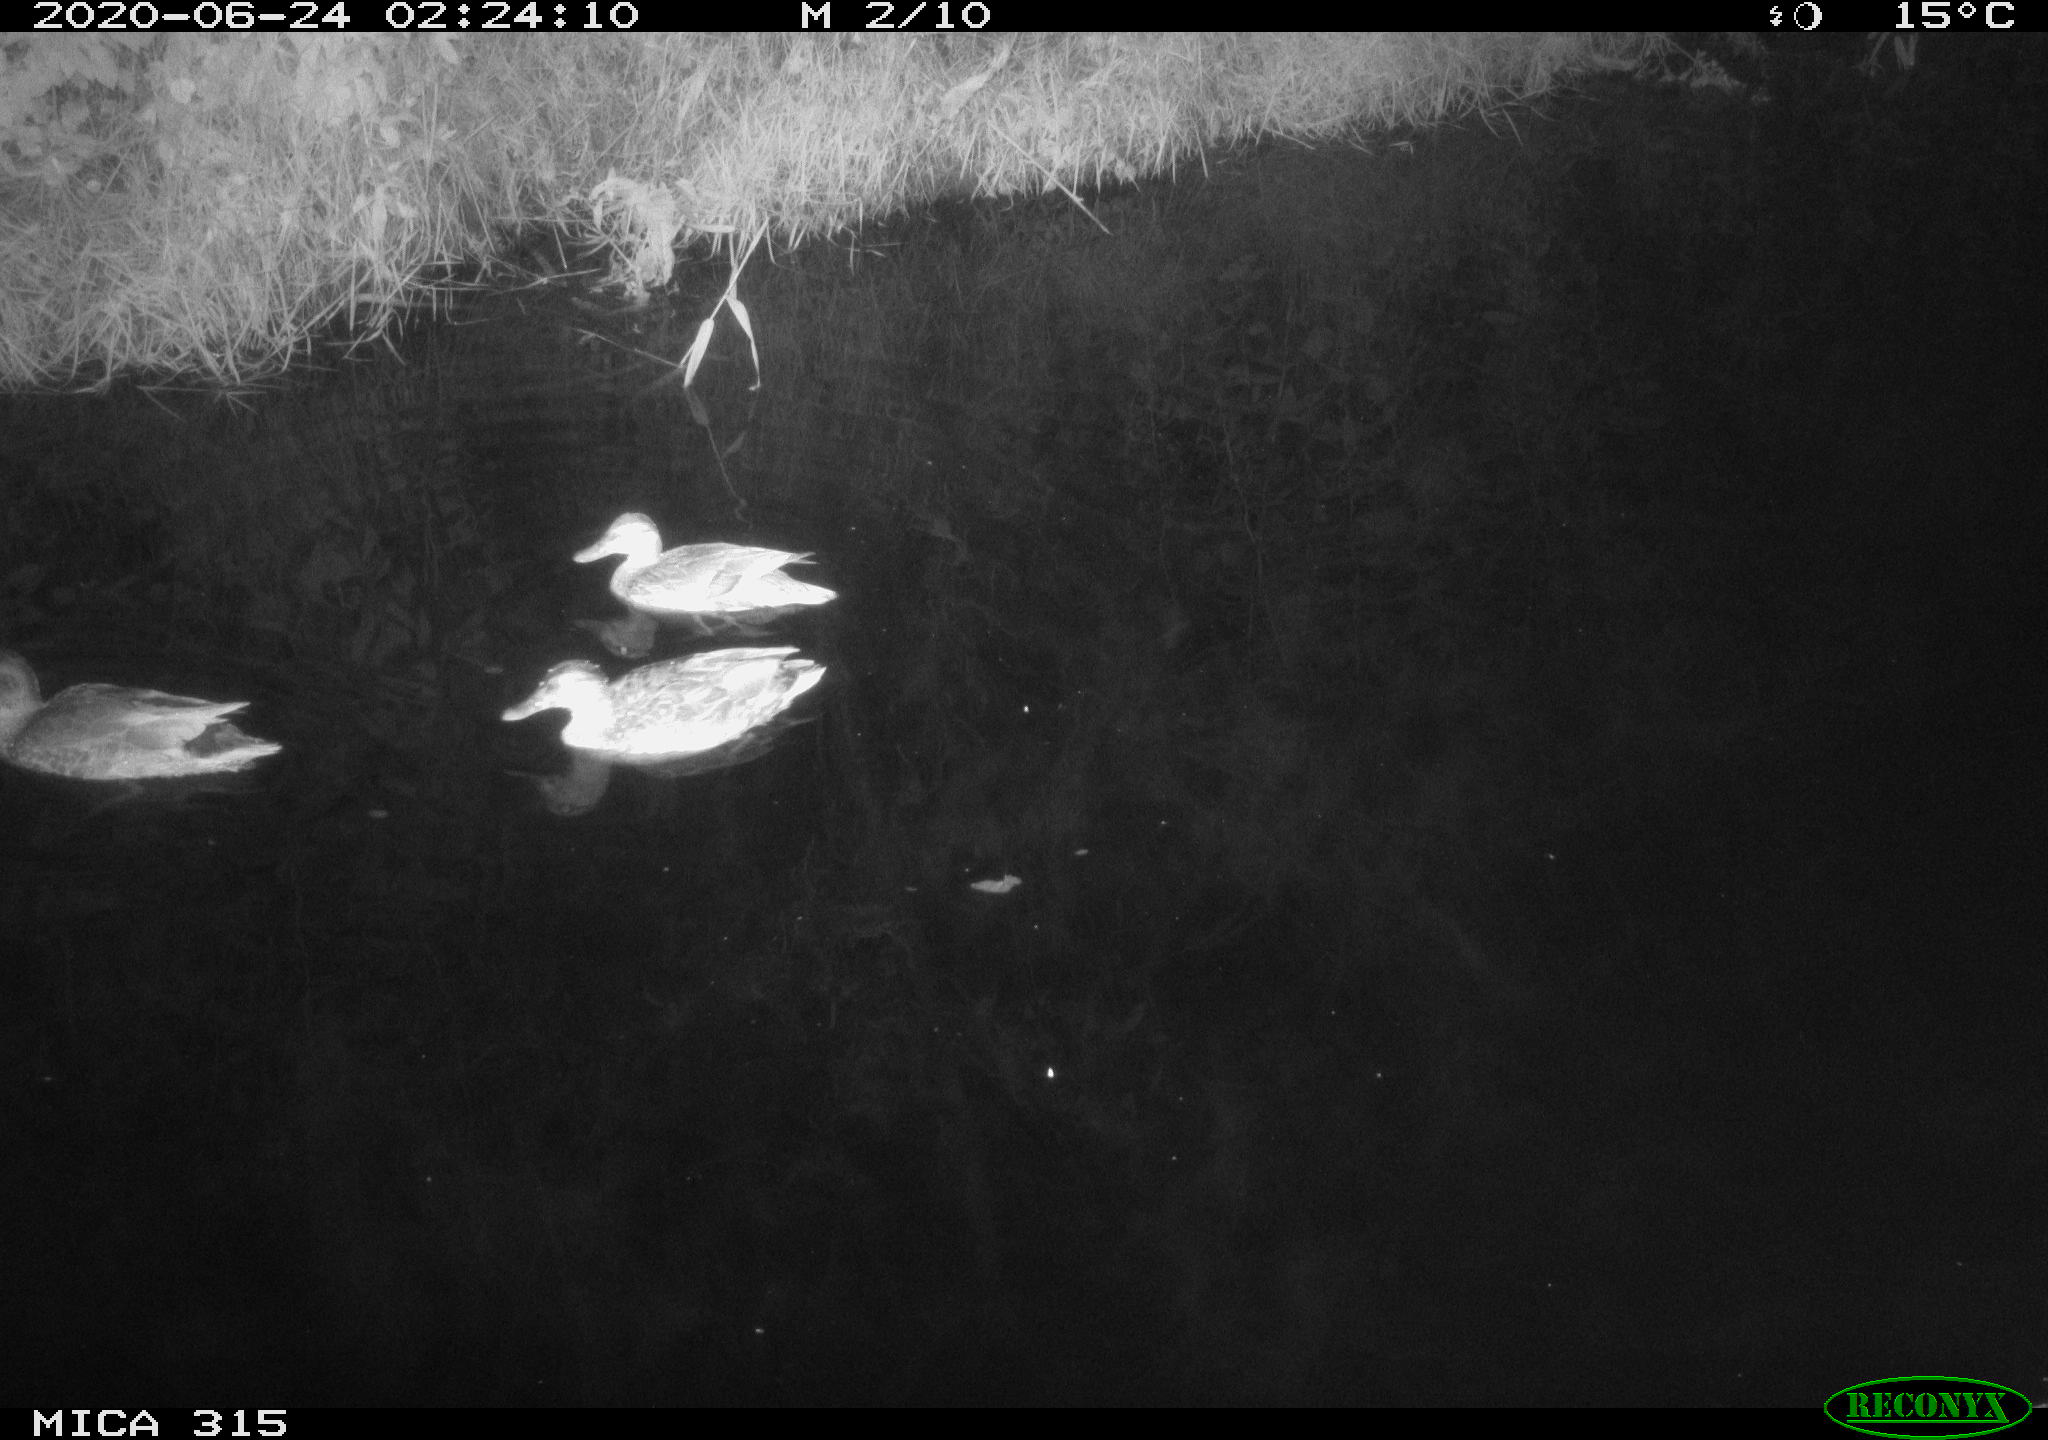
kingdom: Animalia
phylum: Chordata
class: Aves
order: Anseriformes
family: Anatidae
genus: Anas
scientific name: Anas platyrhynchos
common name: Mallard
